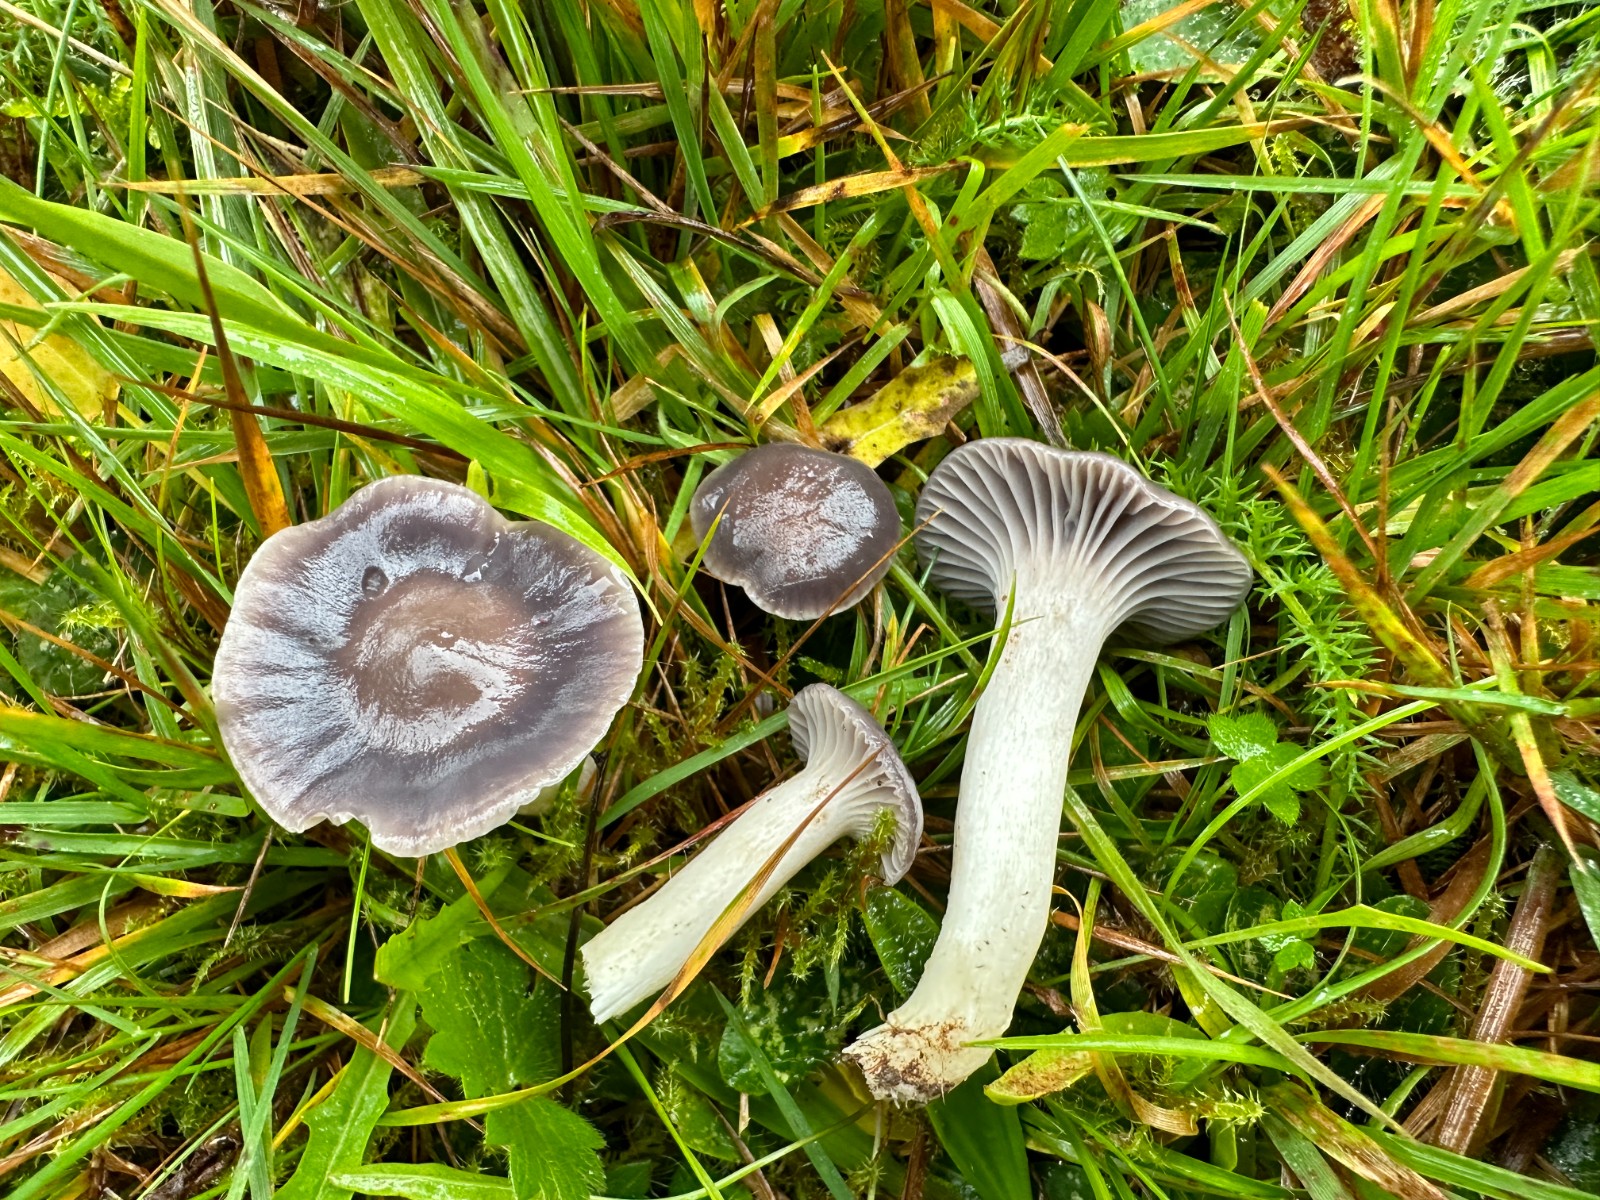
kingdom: Fungi
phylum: Basidiomycota
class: Agaricomycetes
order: Agaricales
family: Hygrophoraceae
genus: Cuphophyllus
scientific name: Cuphophyllus lacmus
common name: gråviolet vokshat
